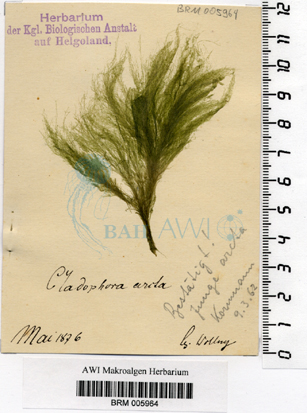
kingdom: Plantae
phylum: Chlorophyta
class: Ulvophyceae
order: Ulotrichales
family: Ulotrichaceae
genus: Acrosiphonia
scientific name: Acrosiphonia arcta
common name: Green tarantula weed
